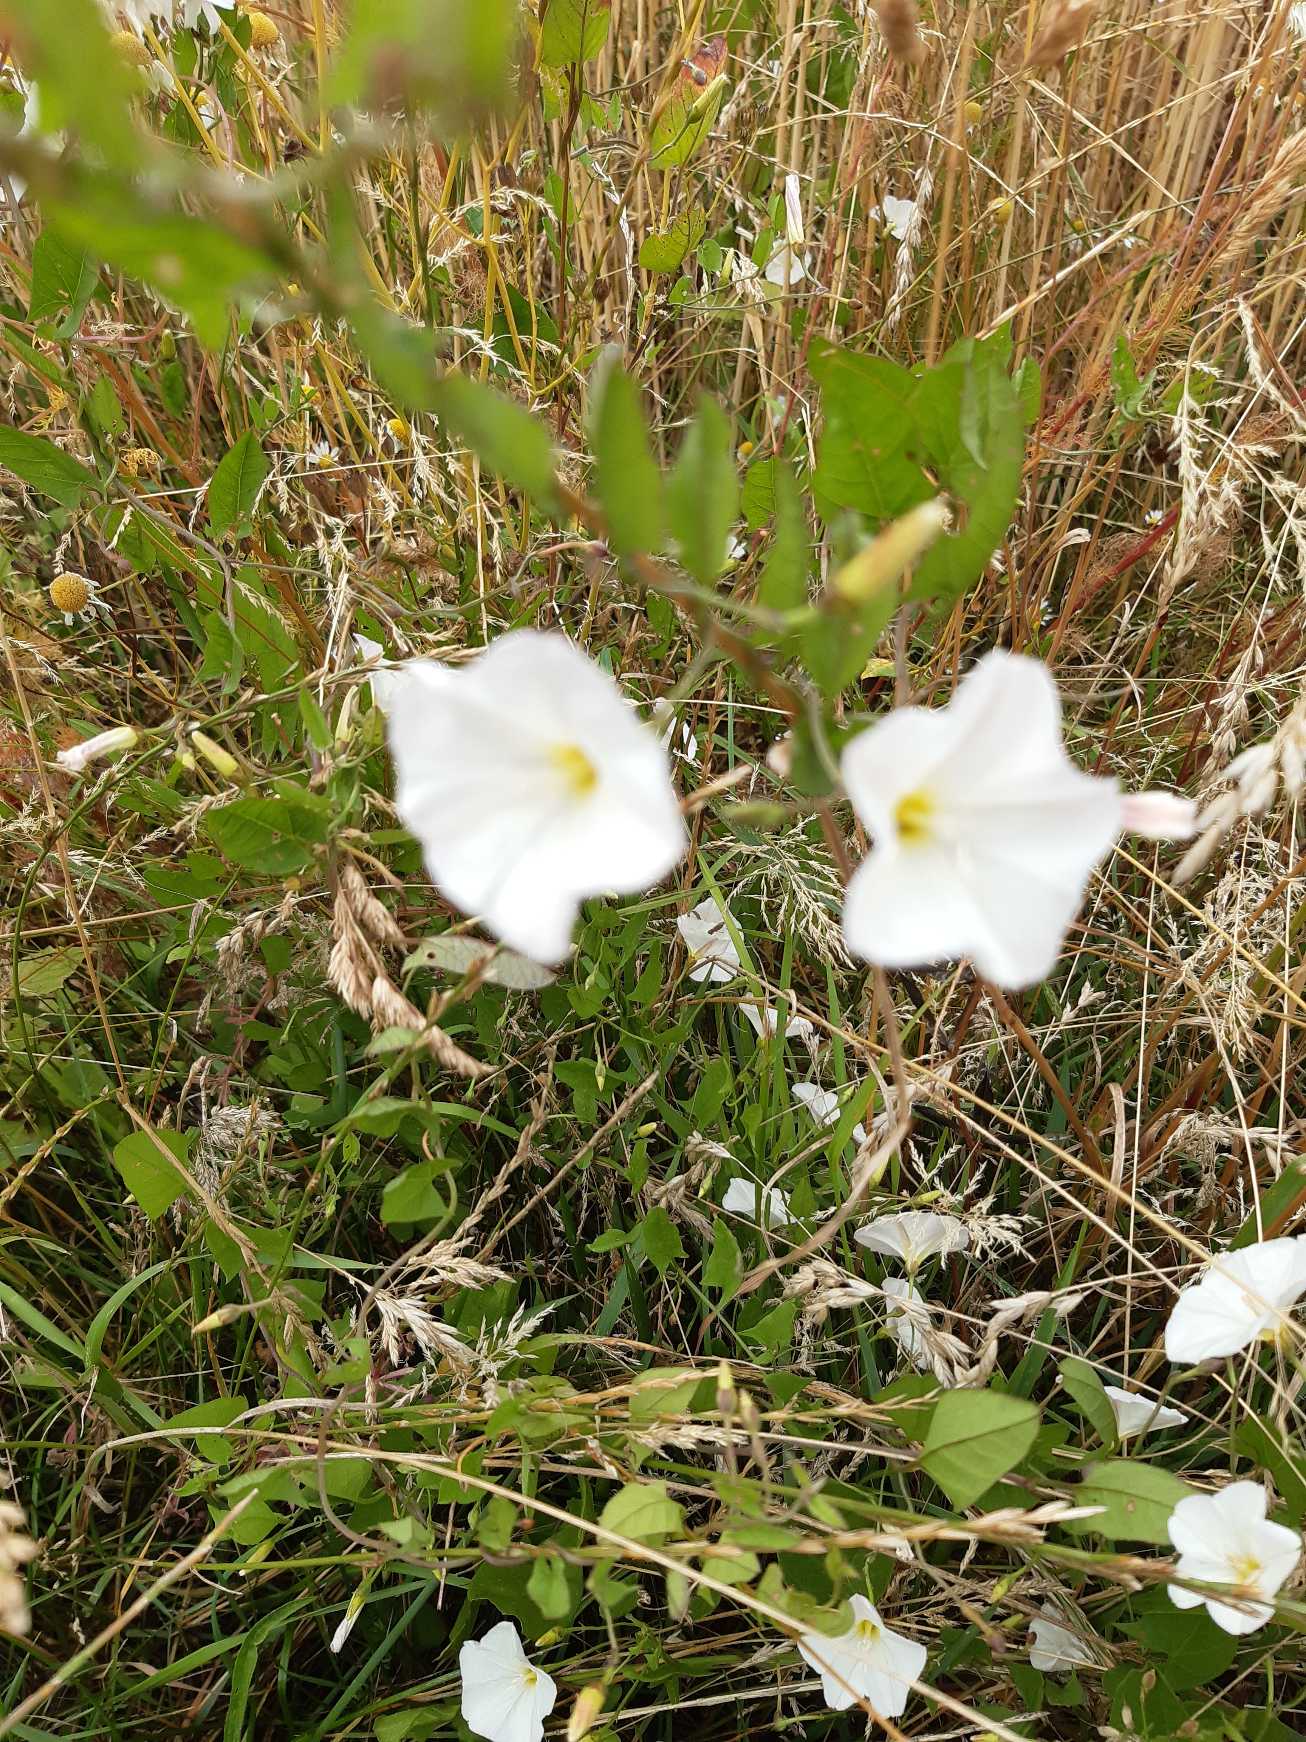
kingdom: Plantae
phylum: Tracheophyta
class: Magnoliopsida
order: Solanales
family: Convolvulaceae
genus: Convolvulus
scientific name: Convolvulus arvensis
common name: Ager-snerle
